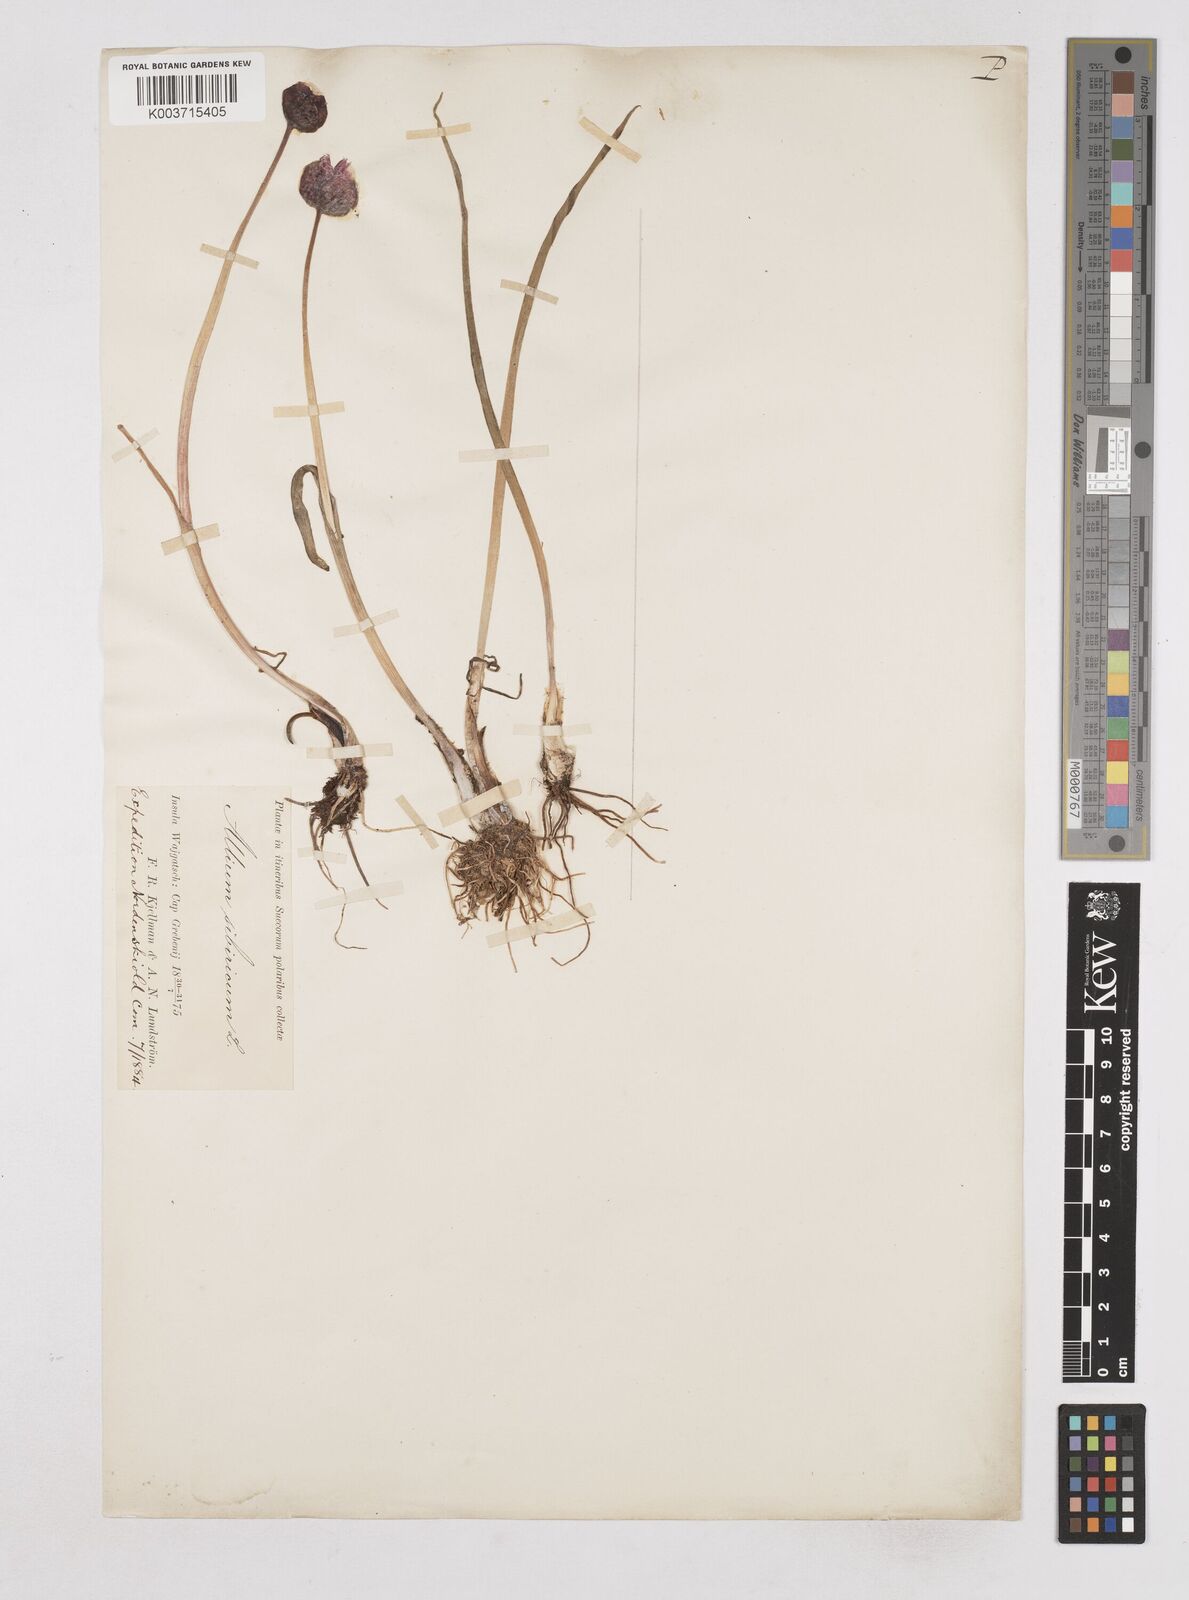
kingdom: Plantae
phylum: Tracheophyta
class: Liliopsida
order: Asparagales
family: Amaryllidaceae
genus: Allium
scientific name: Allium schoenoprasum
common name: Chives
